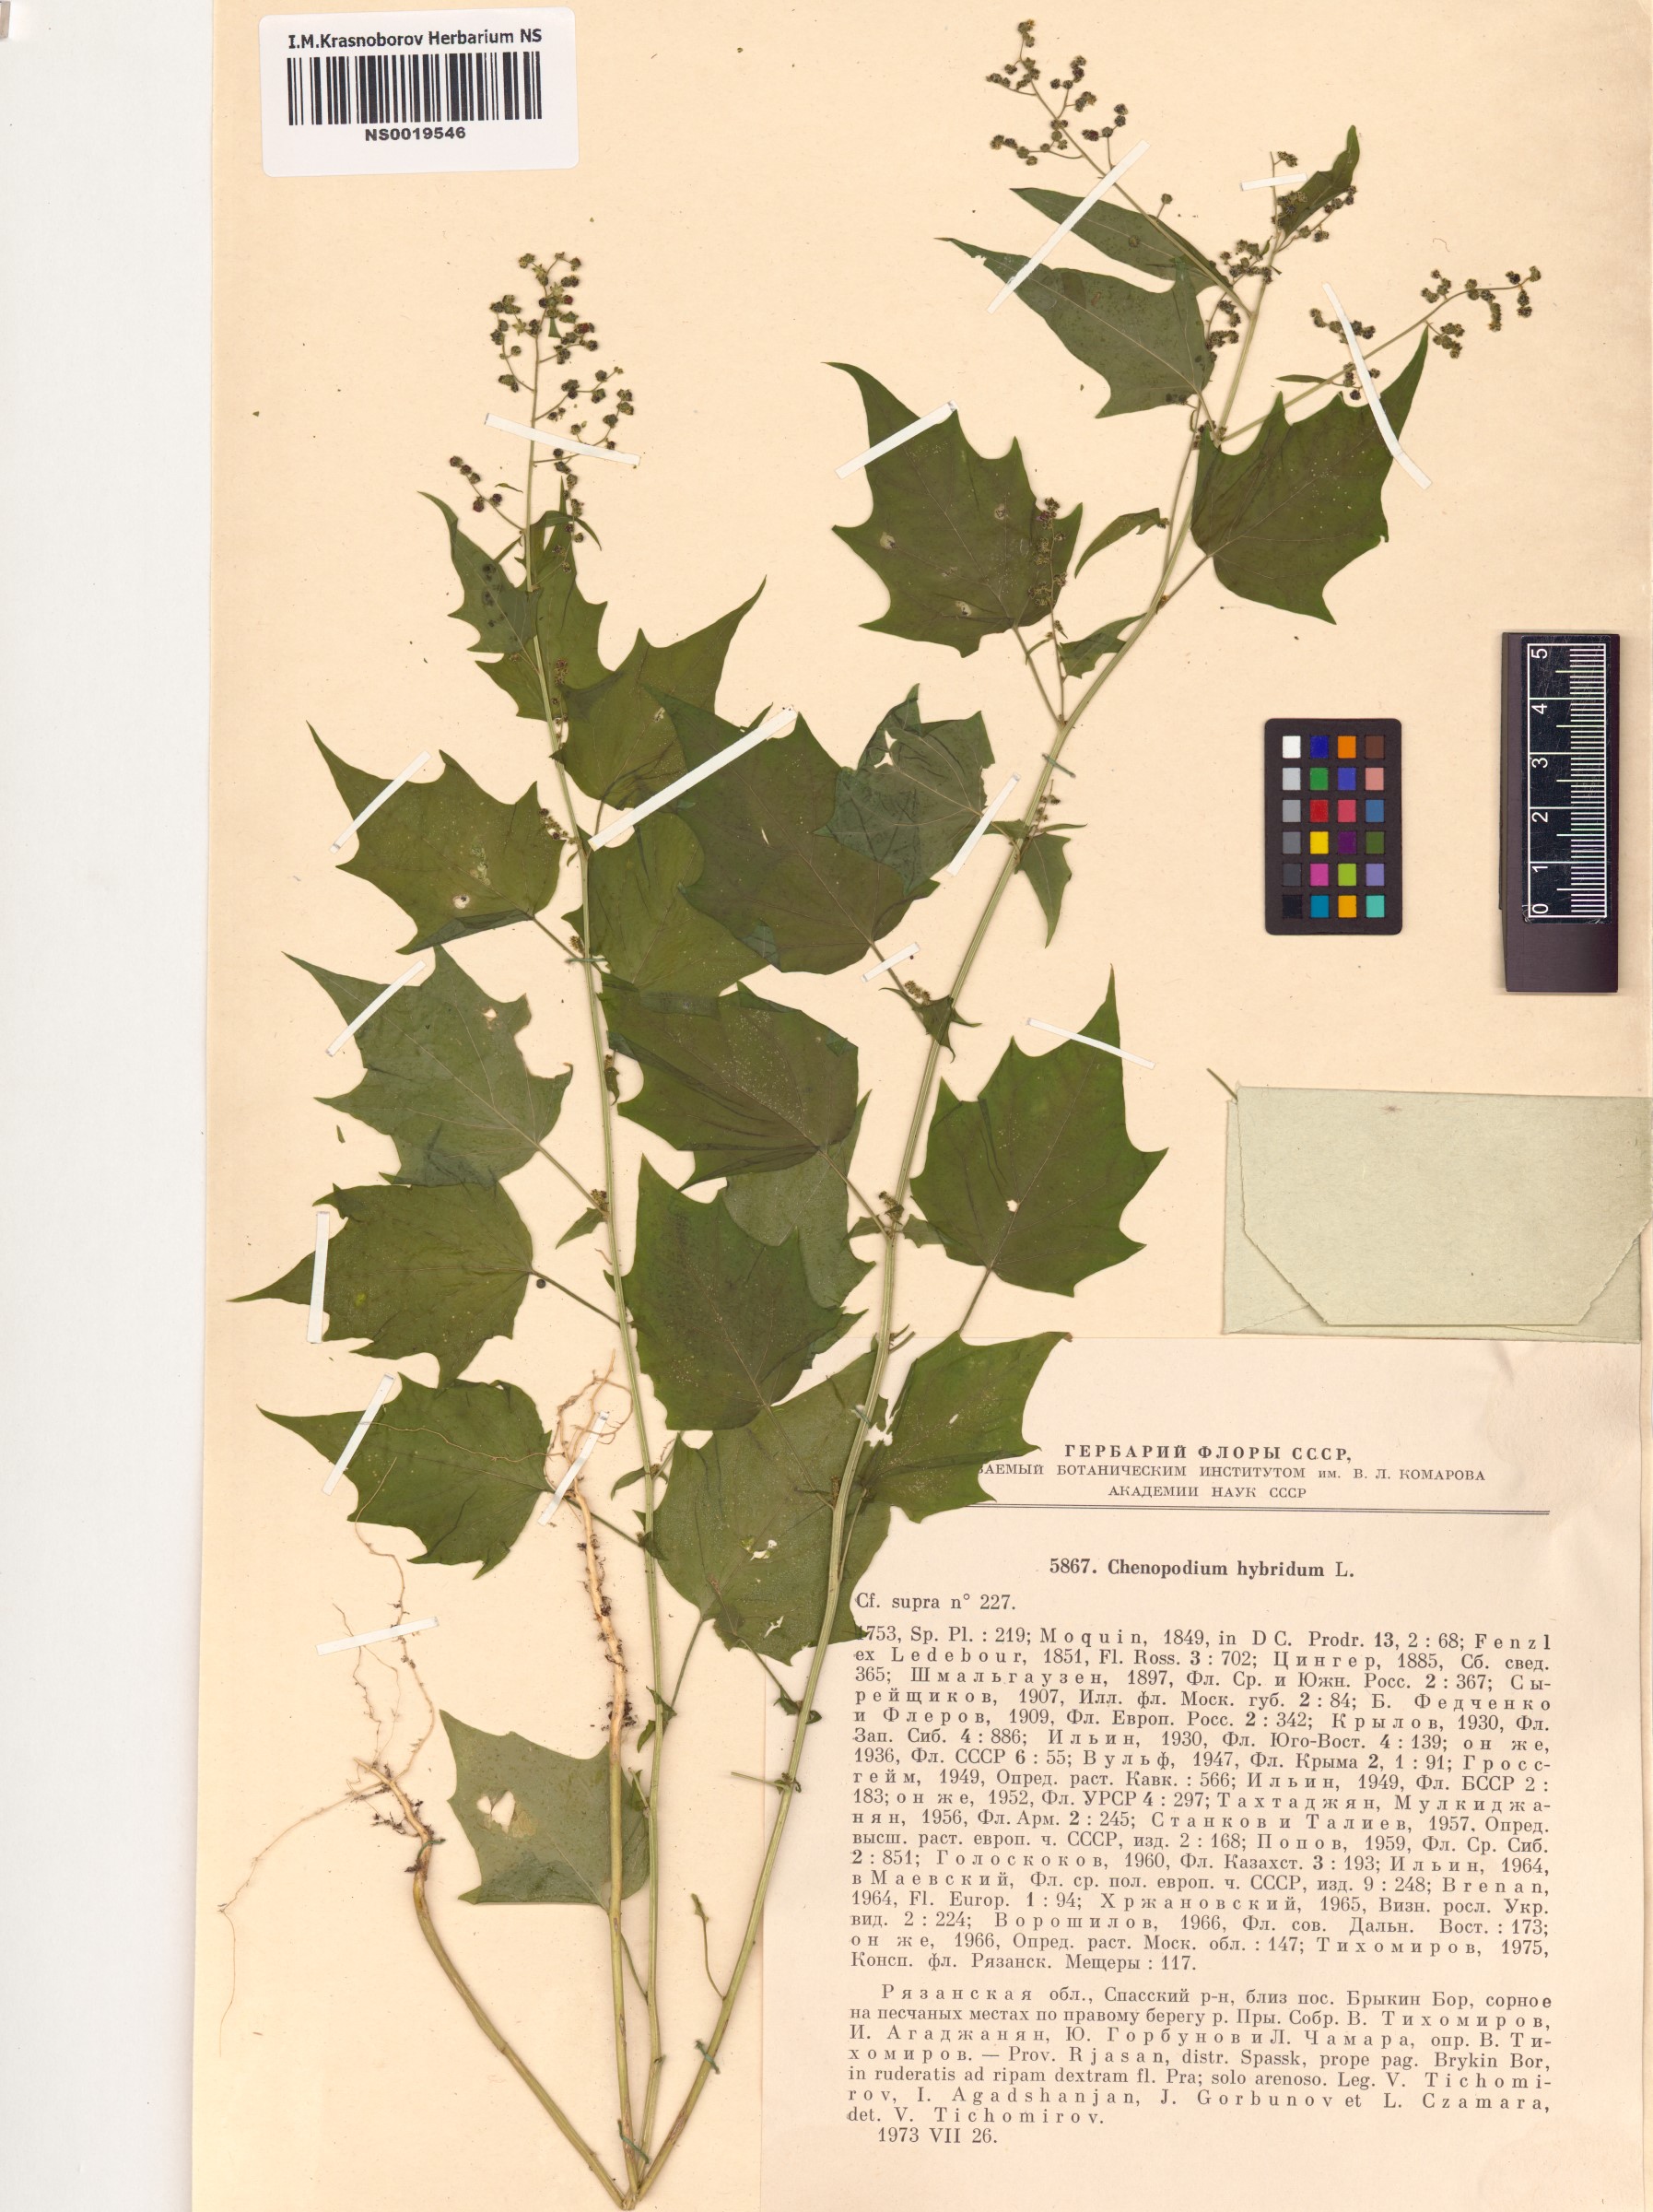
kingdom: Plantae
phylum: Tracheophyta
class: Magnoliopsida
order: Caryophyllales
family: Amaranthaceae
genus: Chenopodiastrum
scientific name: Chenopodiastrum hybridum
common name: Mapleleaf goosefoot
